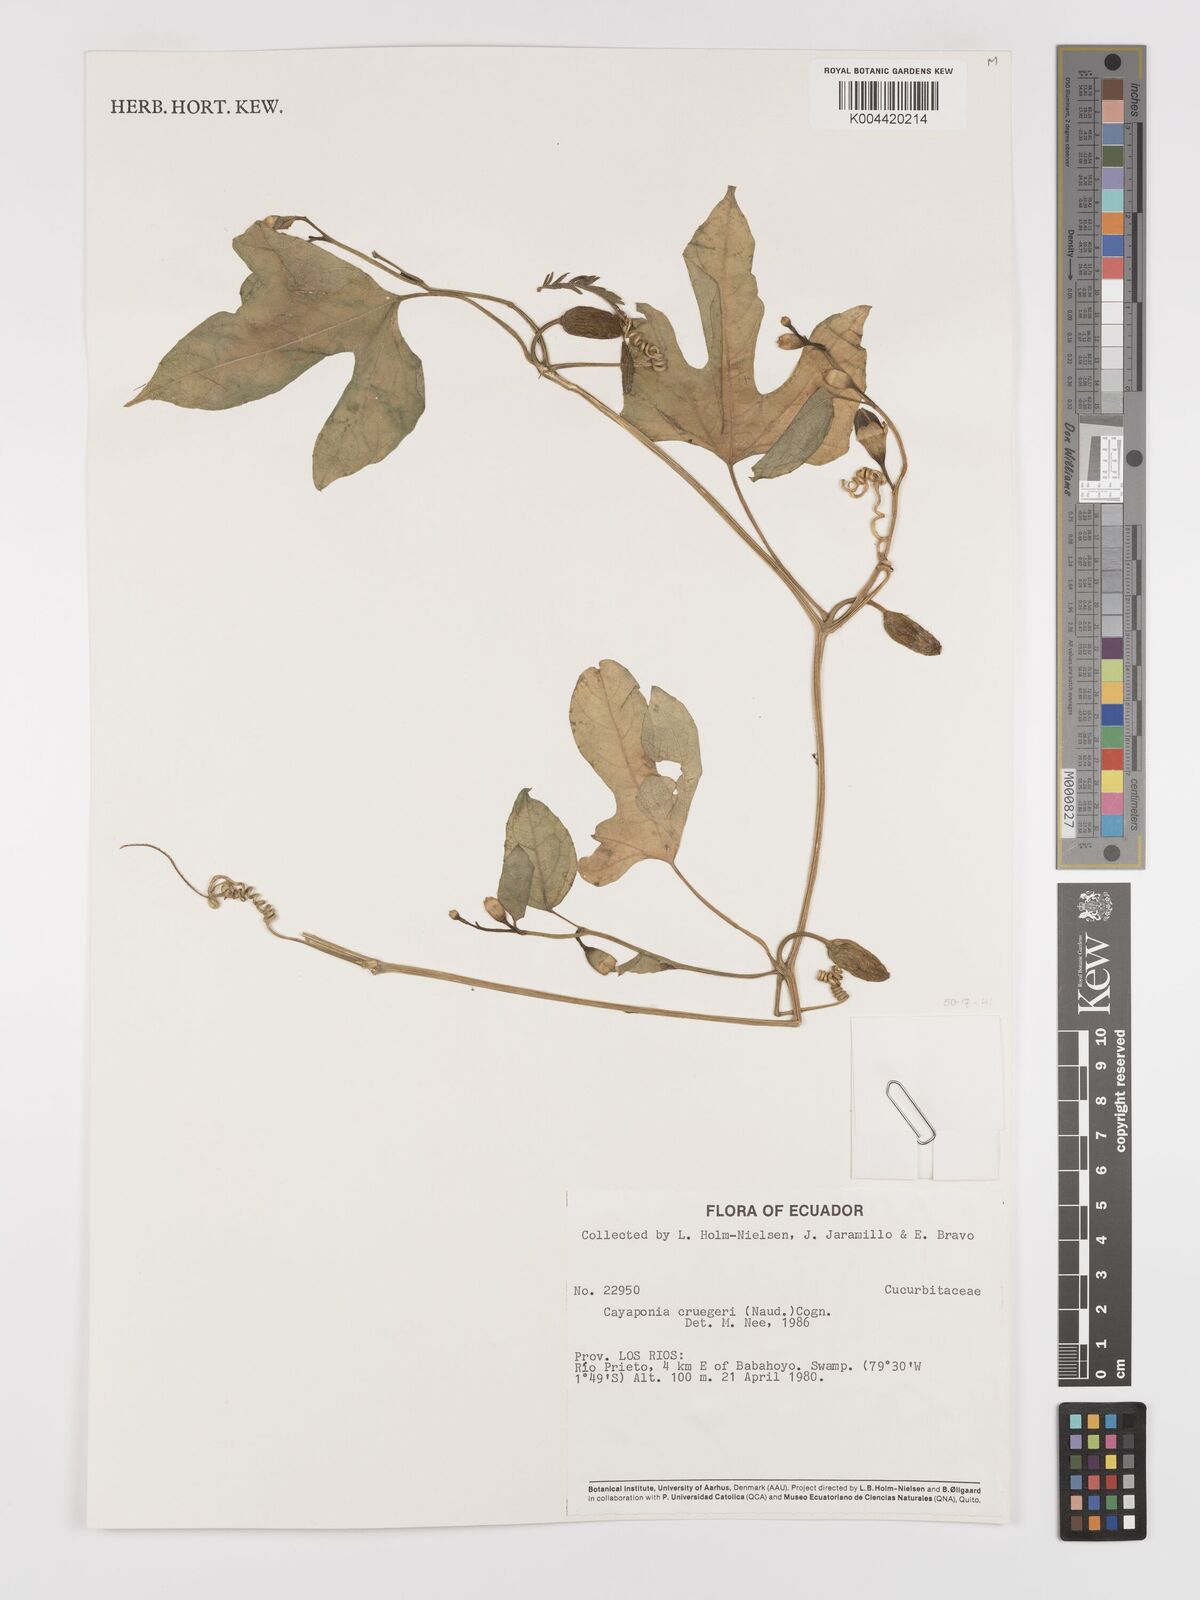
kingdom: Plantae
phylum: Tracheophyta
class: Magnoliopsida
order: Cucurbitales
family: Cucurbitaceae
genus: Cayaponia
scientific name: Cayaponia cruegeri
